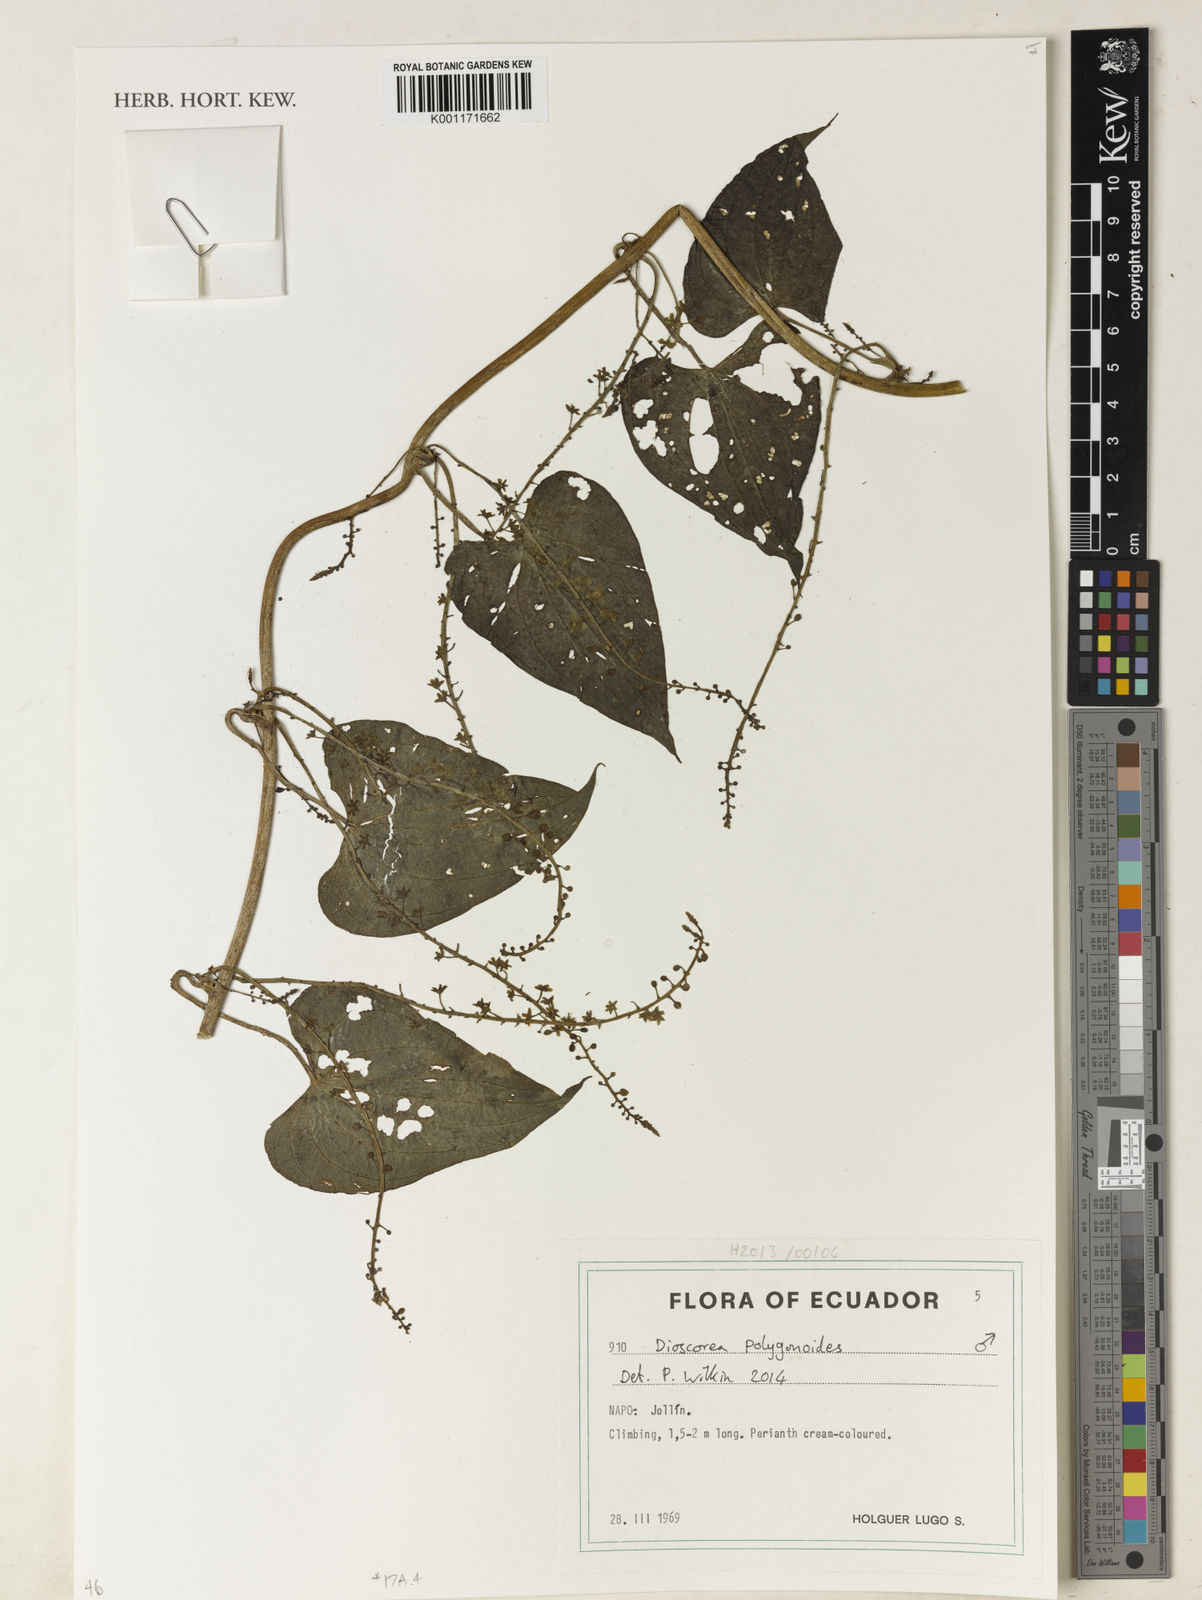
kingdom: Plantae
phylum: Tracheophyta
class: Liliopsida
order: Dioscoreales
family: Dioscoreaceae
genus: Dioscorea
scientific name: Dioscorea piperifolia
